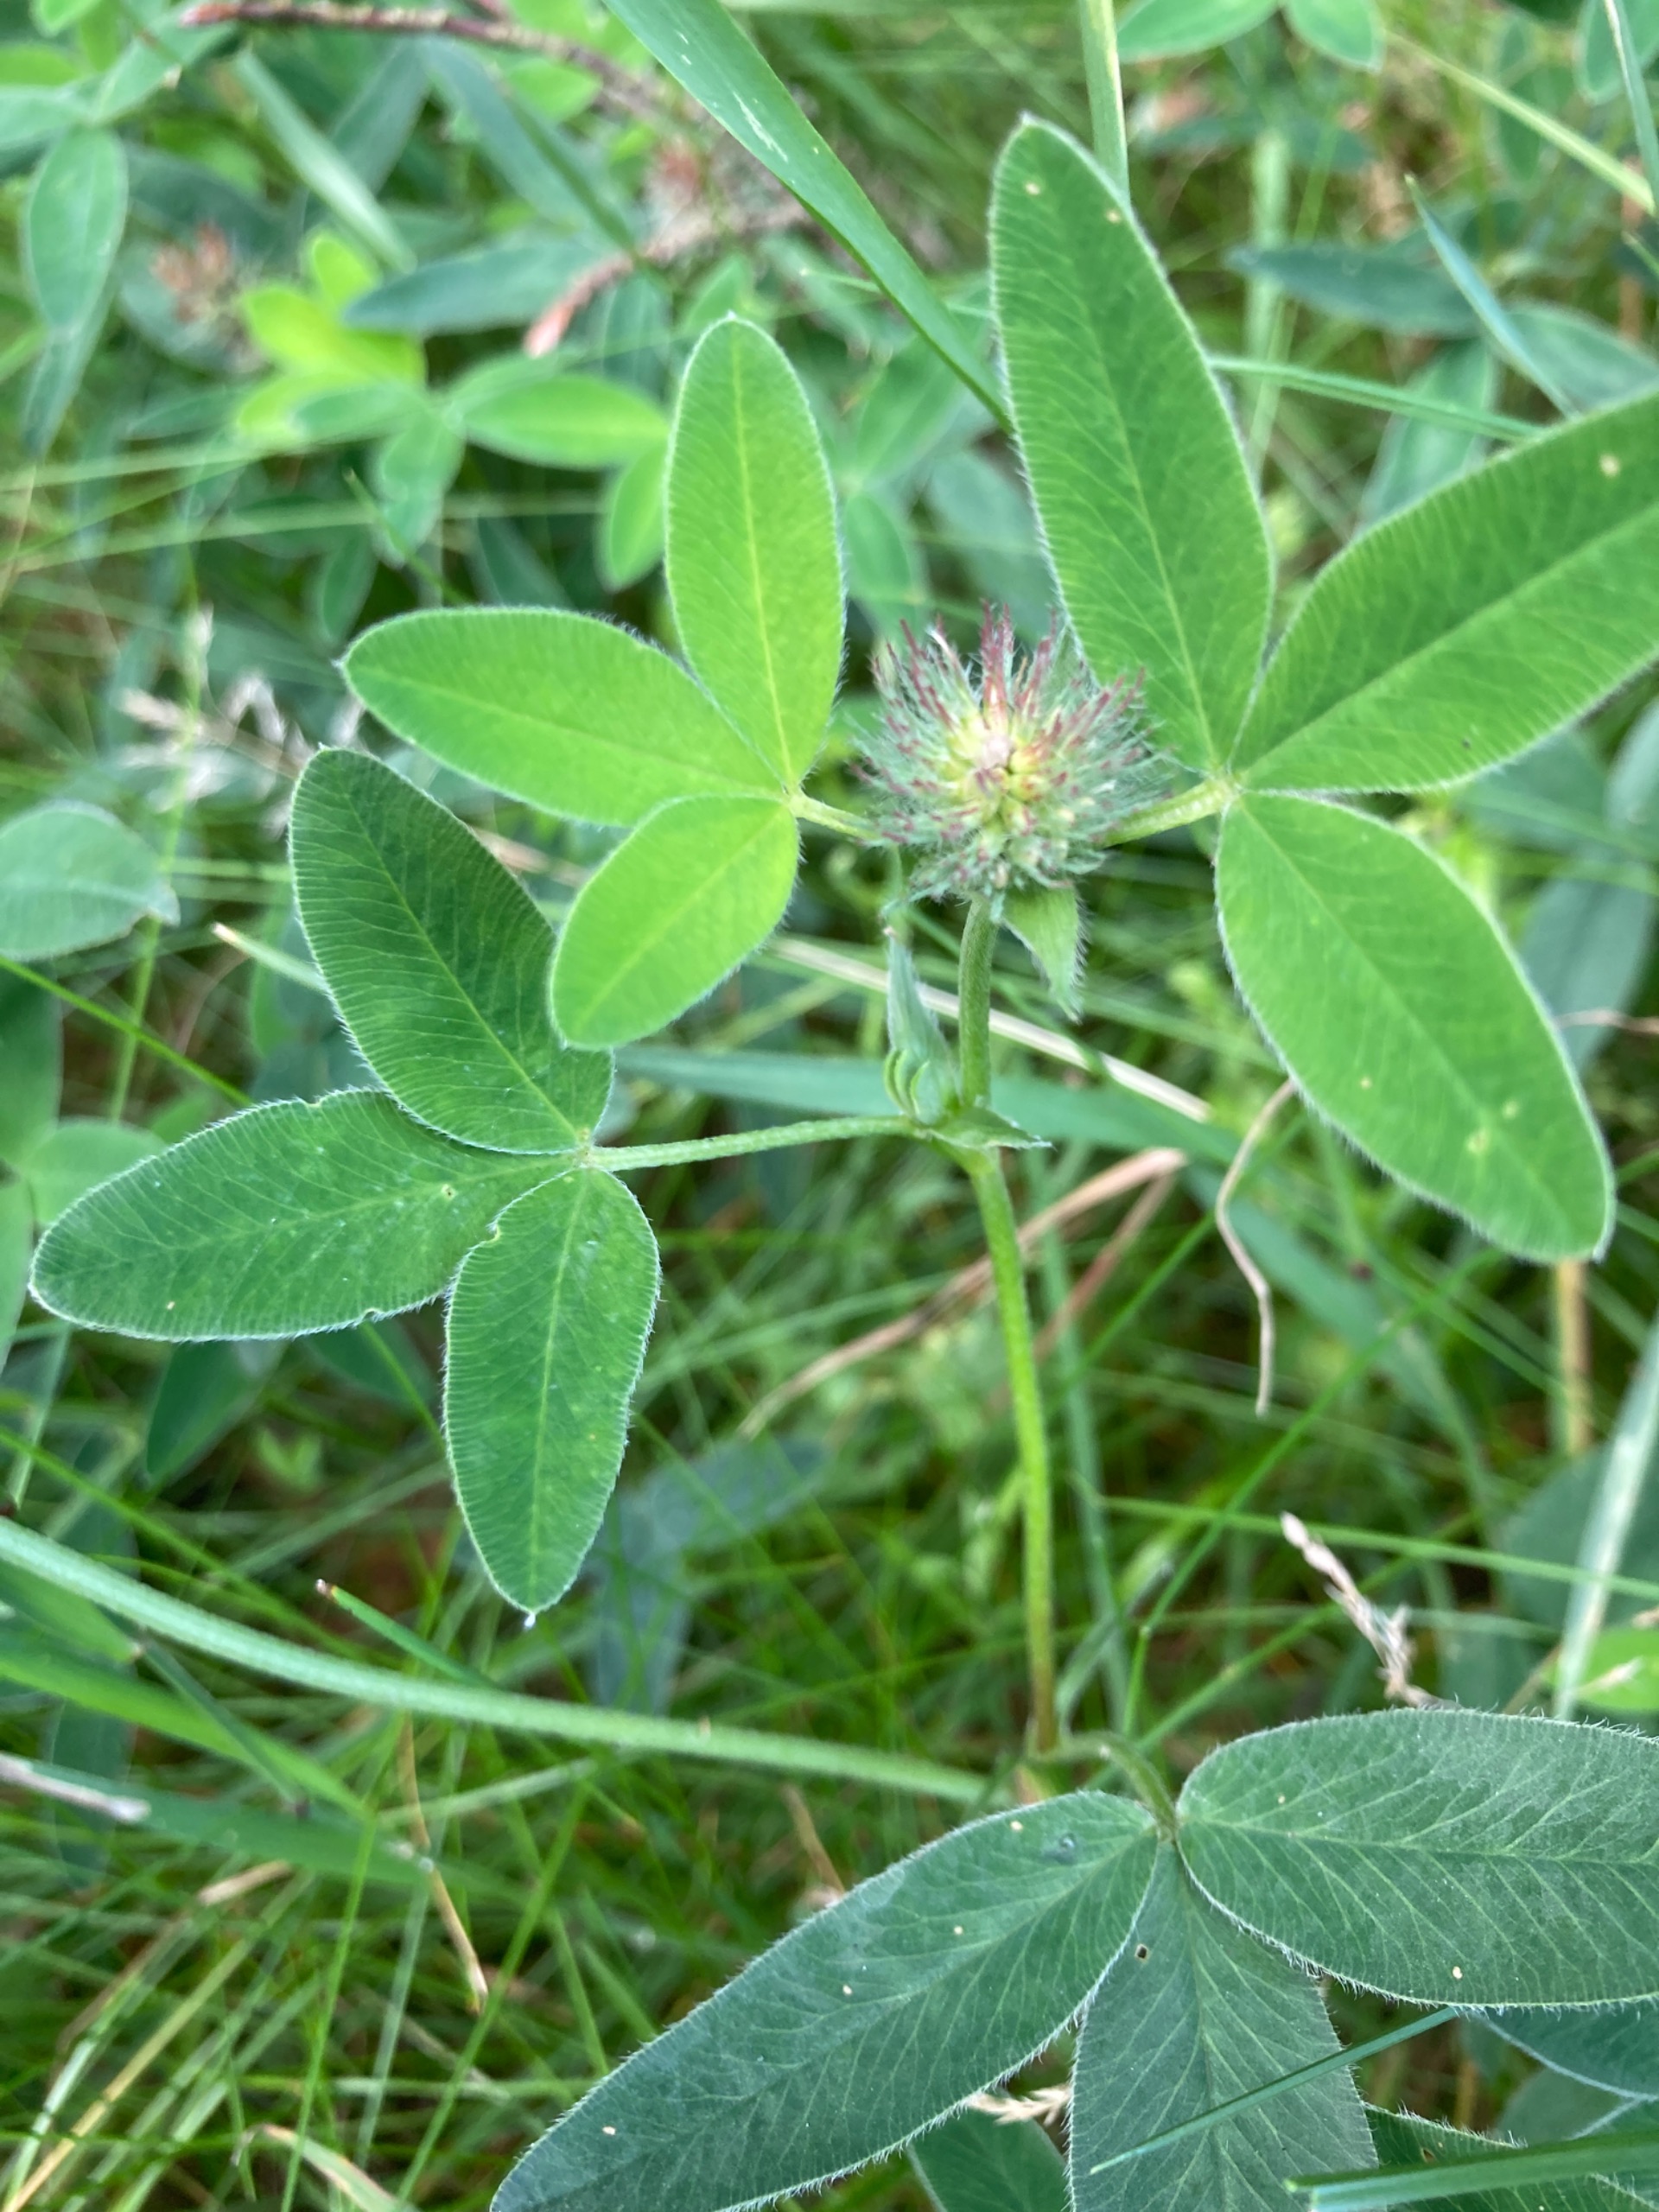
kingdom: Plantae
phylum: Tracheophyta
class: Magnoliopsida
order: Fabales
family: Fabaceae
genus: Trifolium
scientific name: Trifolium medium
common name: Bugtet kløver
